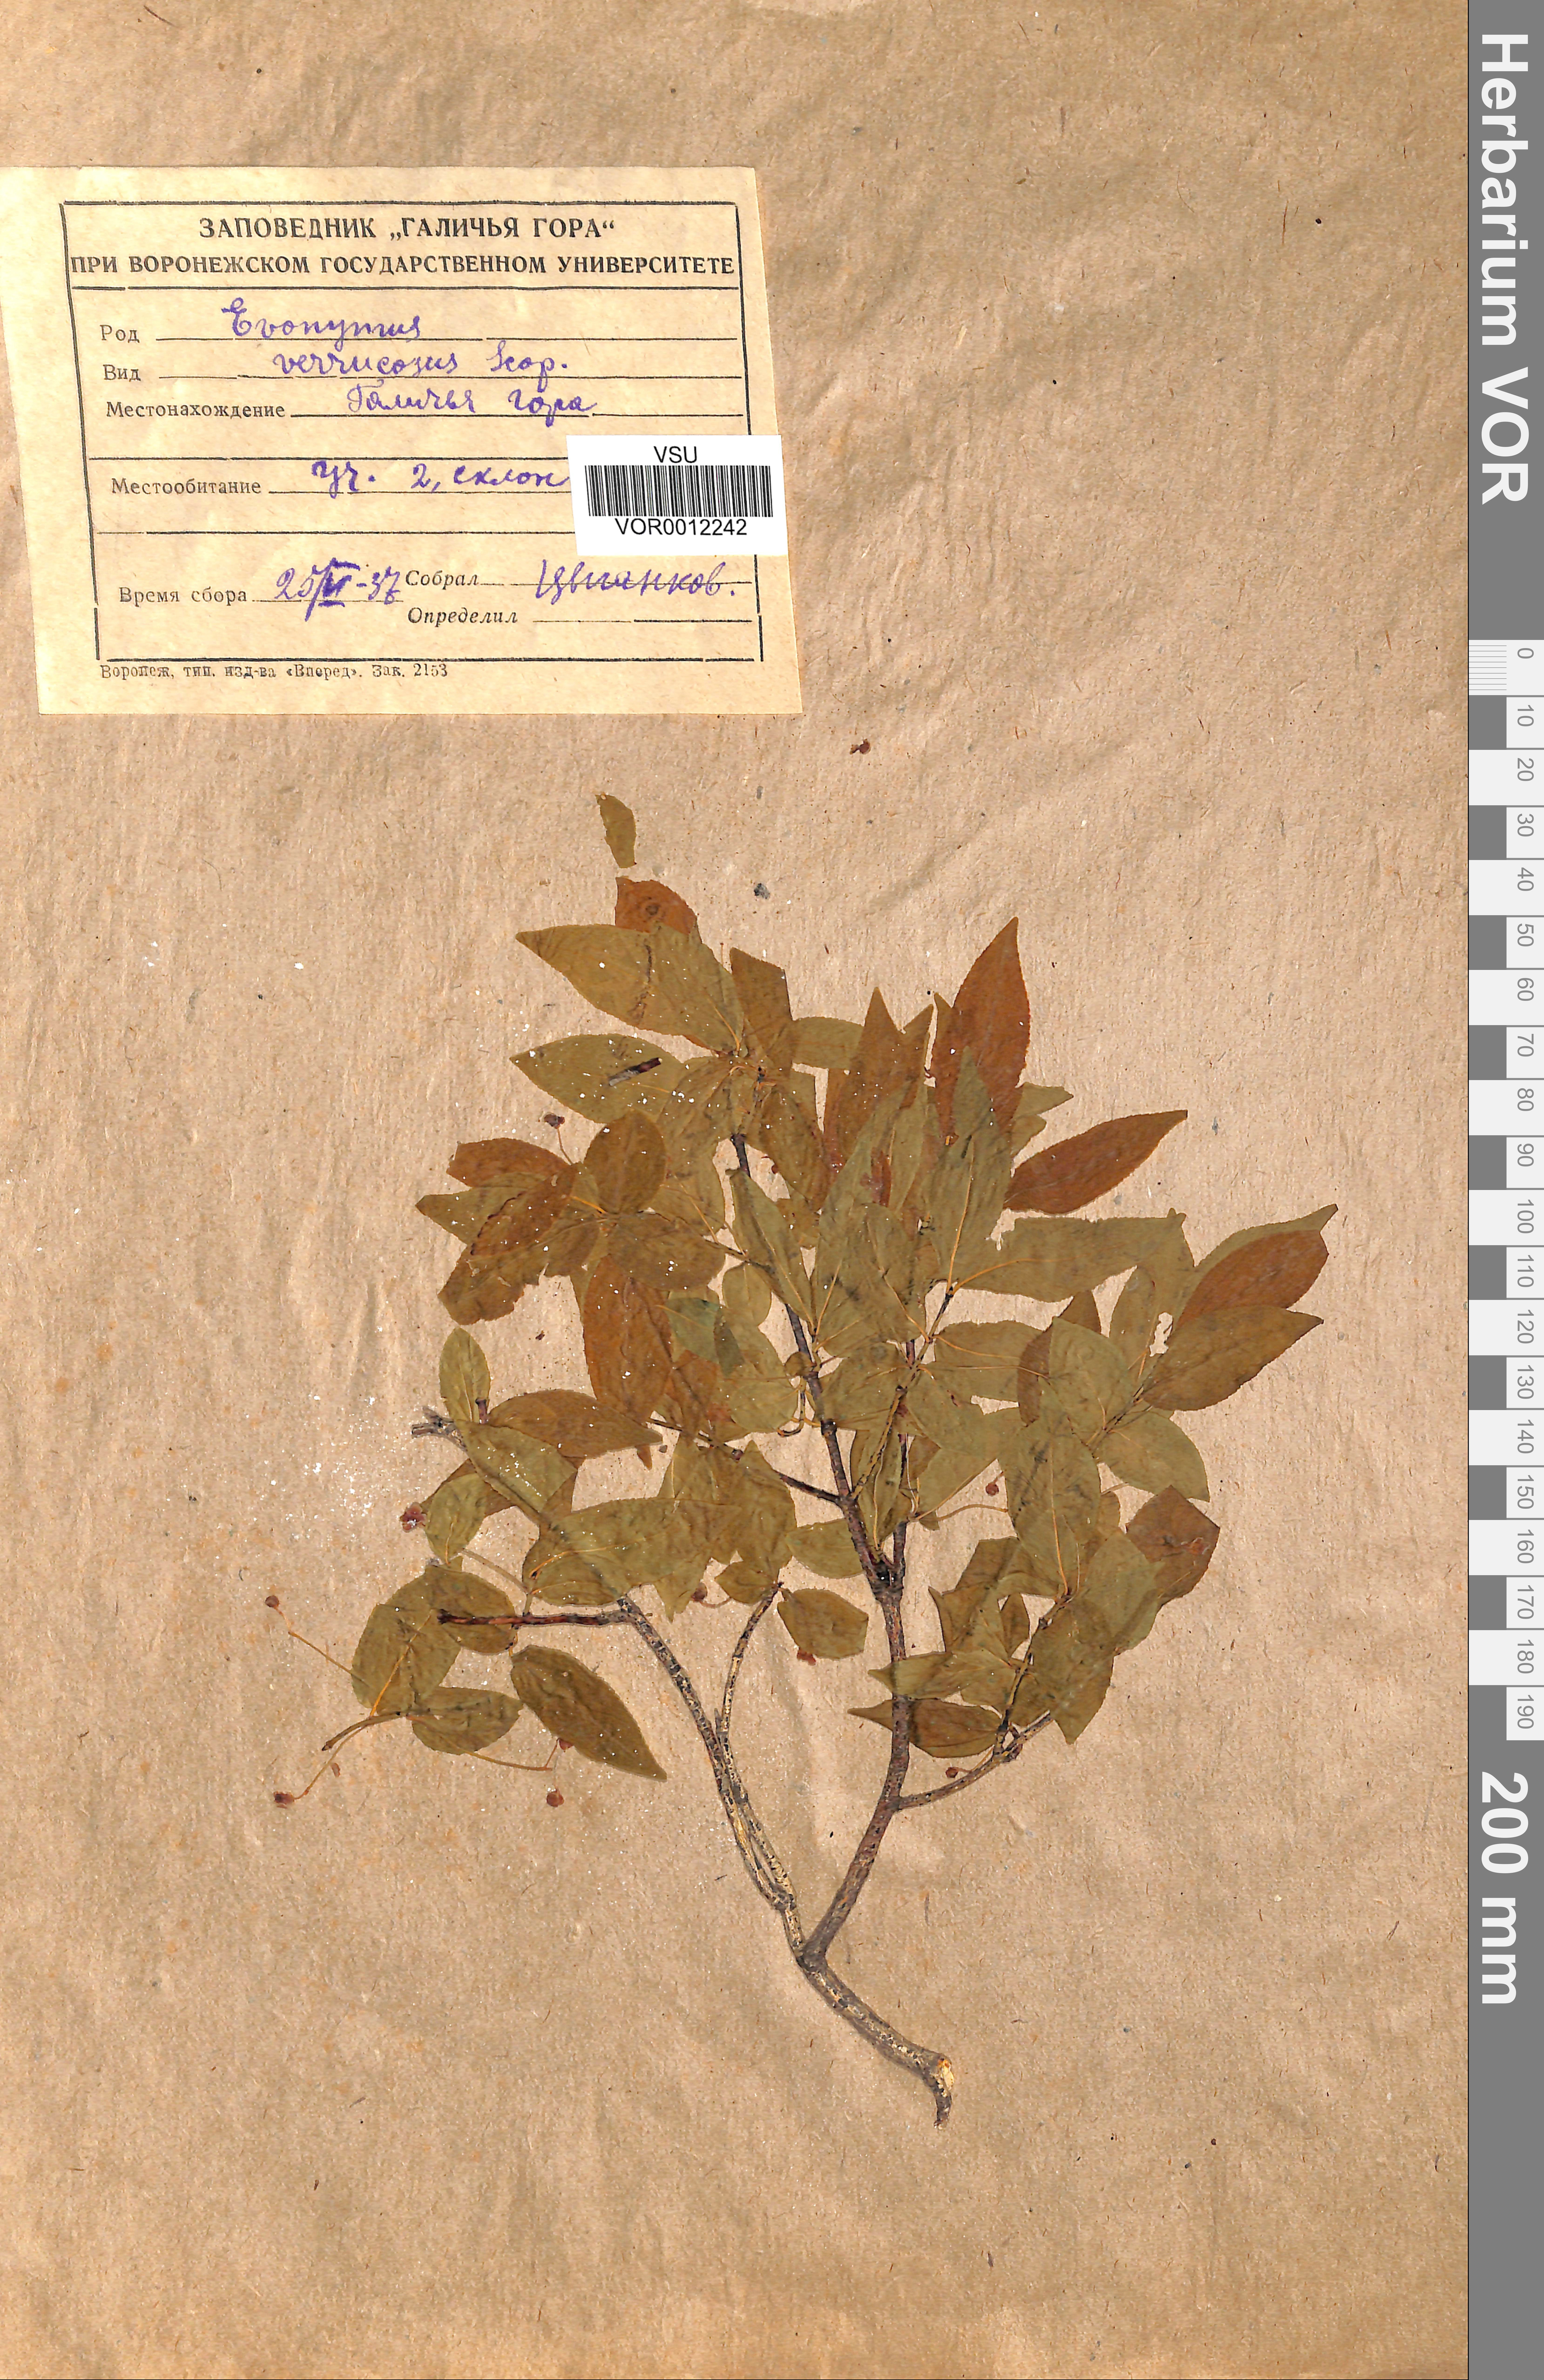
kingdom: Plantae
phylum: Tracheophyta
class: Magnoliopsida
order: Celastrales
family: Celastraceae
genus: Euonymus
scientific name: Euonymus verrucosus
